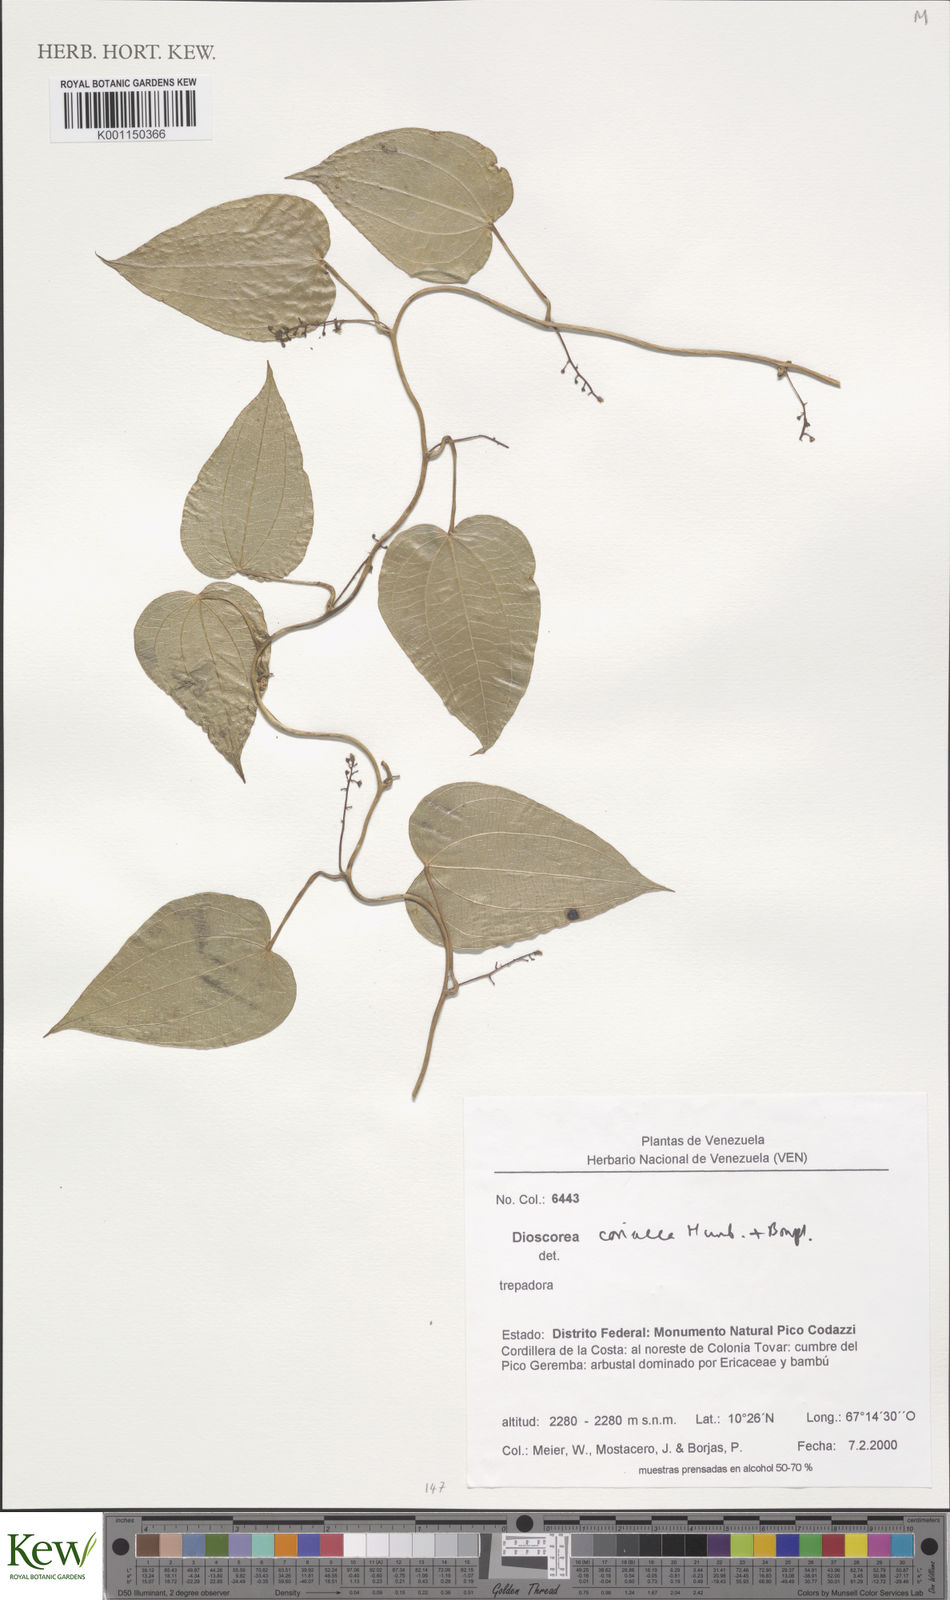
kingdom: Plantae
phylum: Tracheophyta
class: Liliopsida
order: Dioscoreales
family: Dioscoreaceae
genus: Dioscorea
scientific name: Dioscorea coriacea
